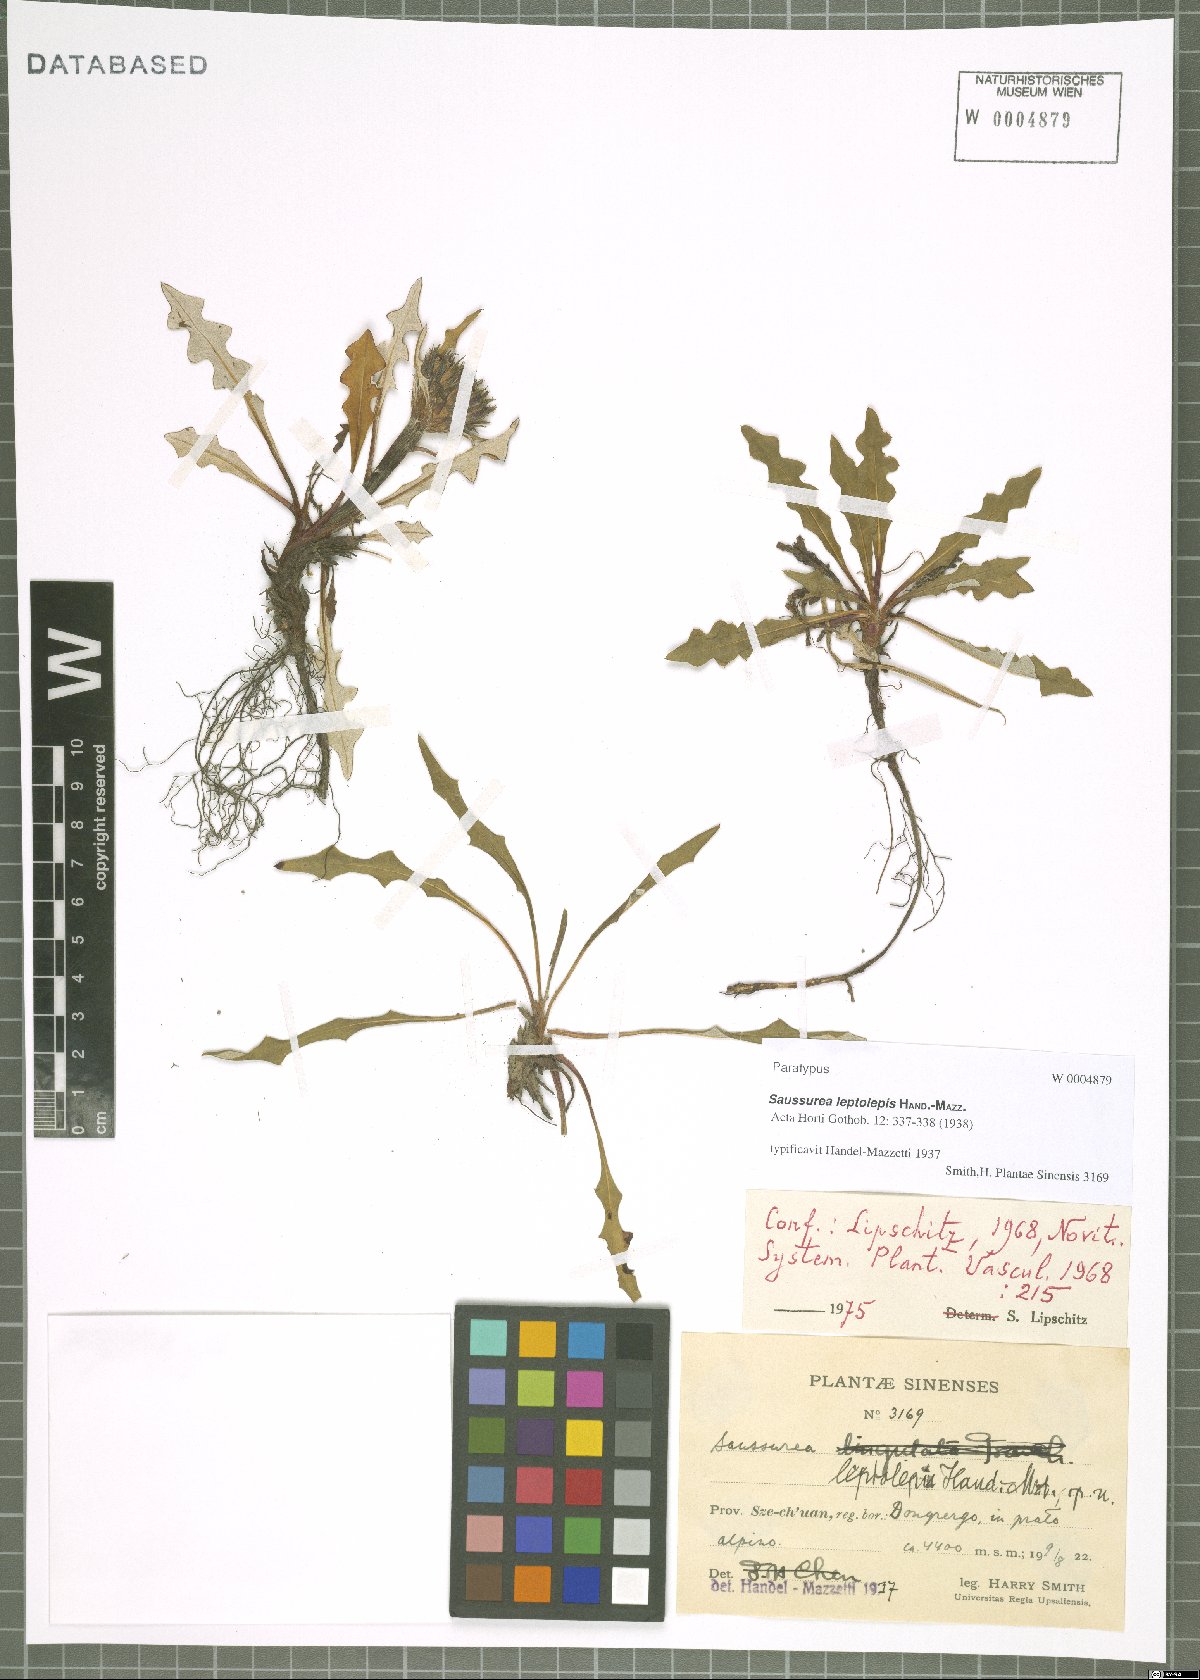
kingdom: Plantae
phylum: Tracheophyta
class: Magnoliopsida
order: Asterales
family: Asteraceae
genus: Saussurea
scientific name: Saussurea leptolepis
